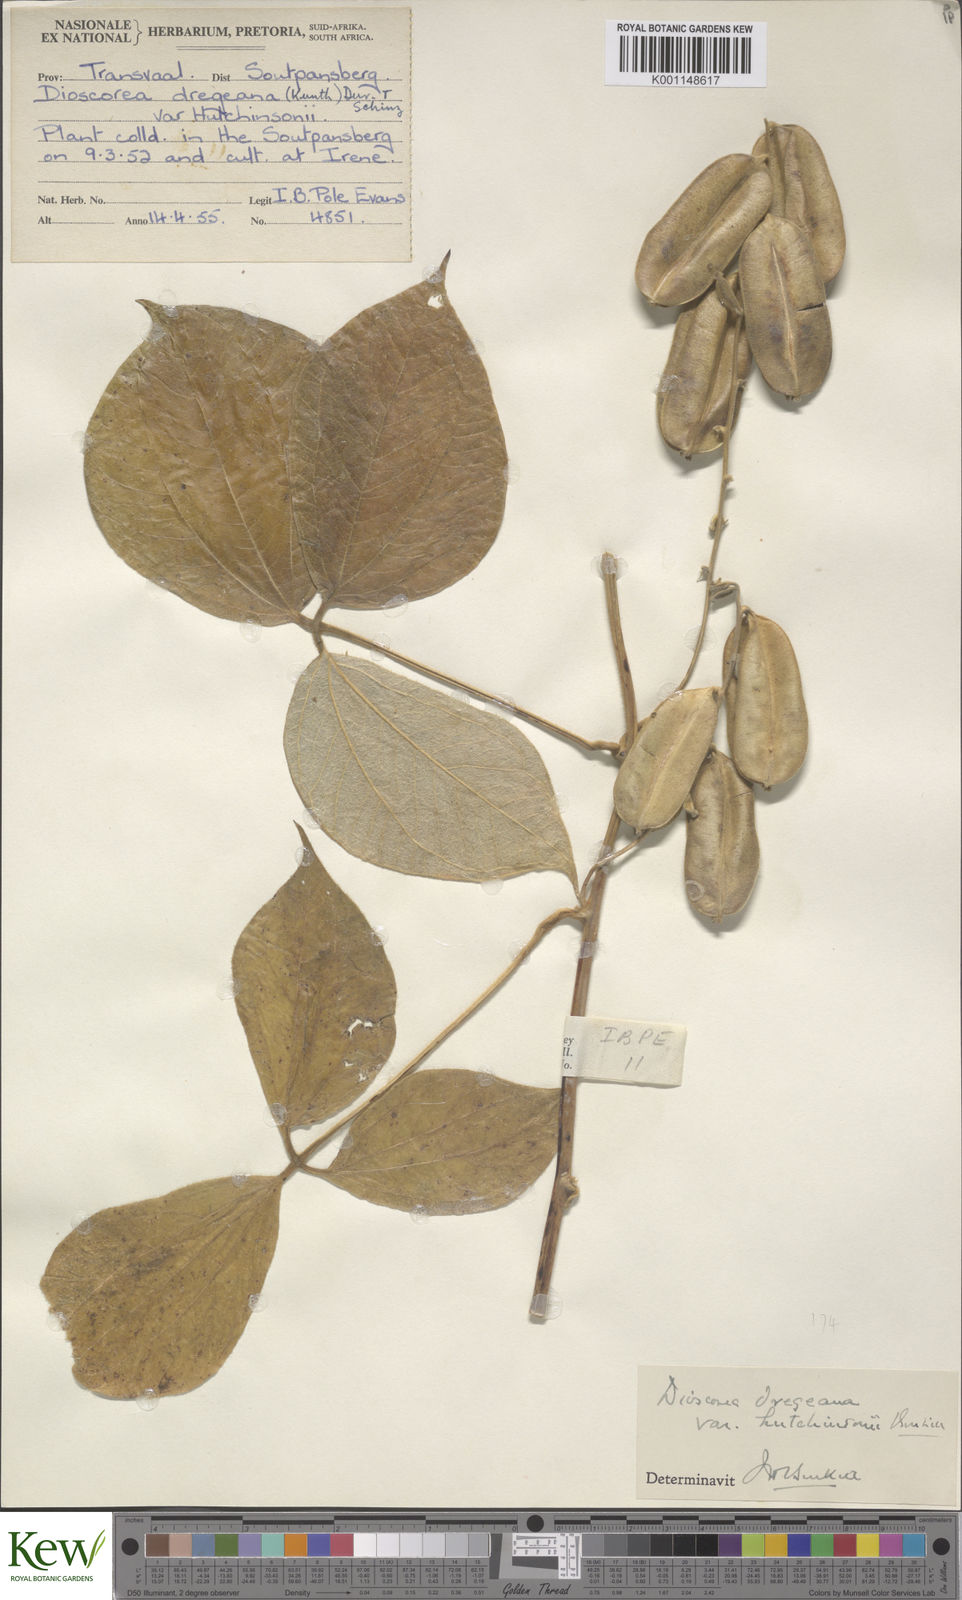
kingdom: Plantae
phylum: Tracheophyta
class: Liliopsida
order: Dioscoreales
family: Dioscoreaceae
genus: Dioscorea
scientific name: Dioscorea dregeana
